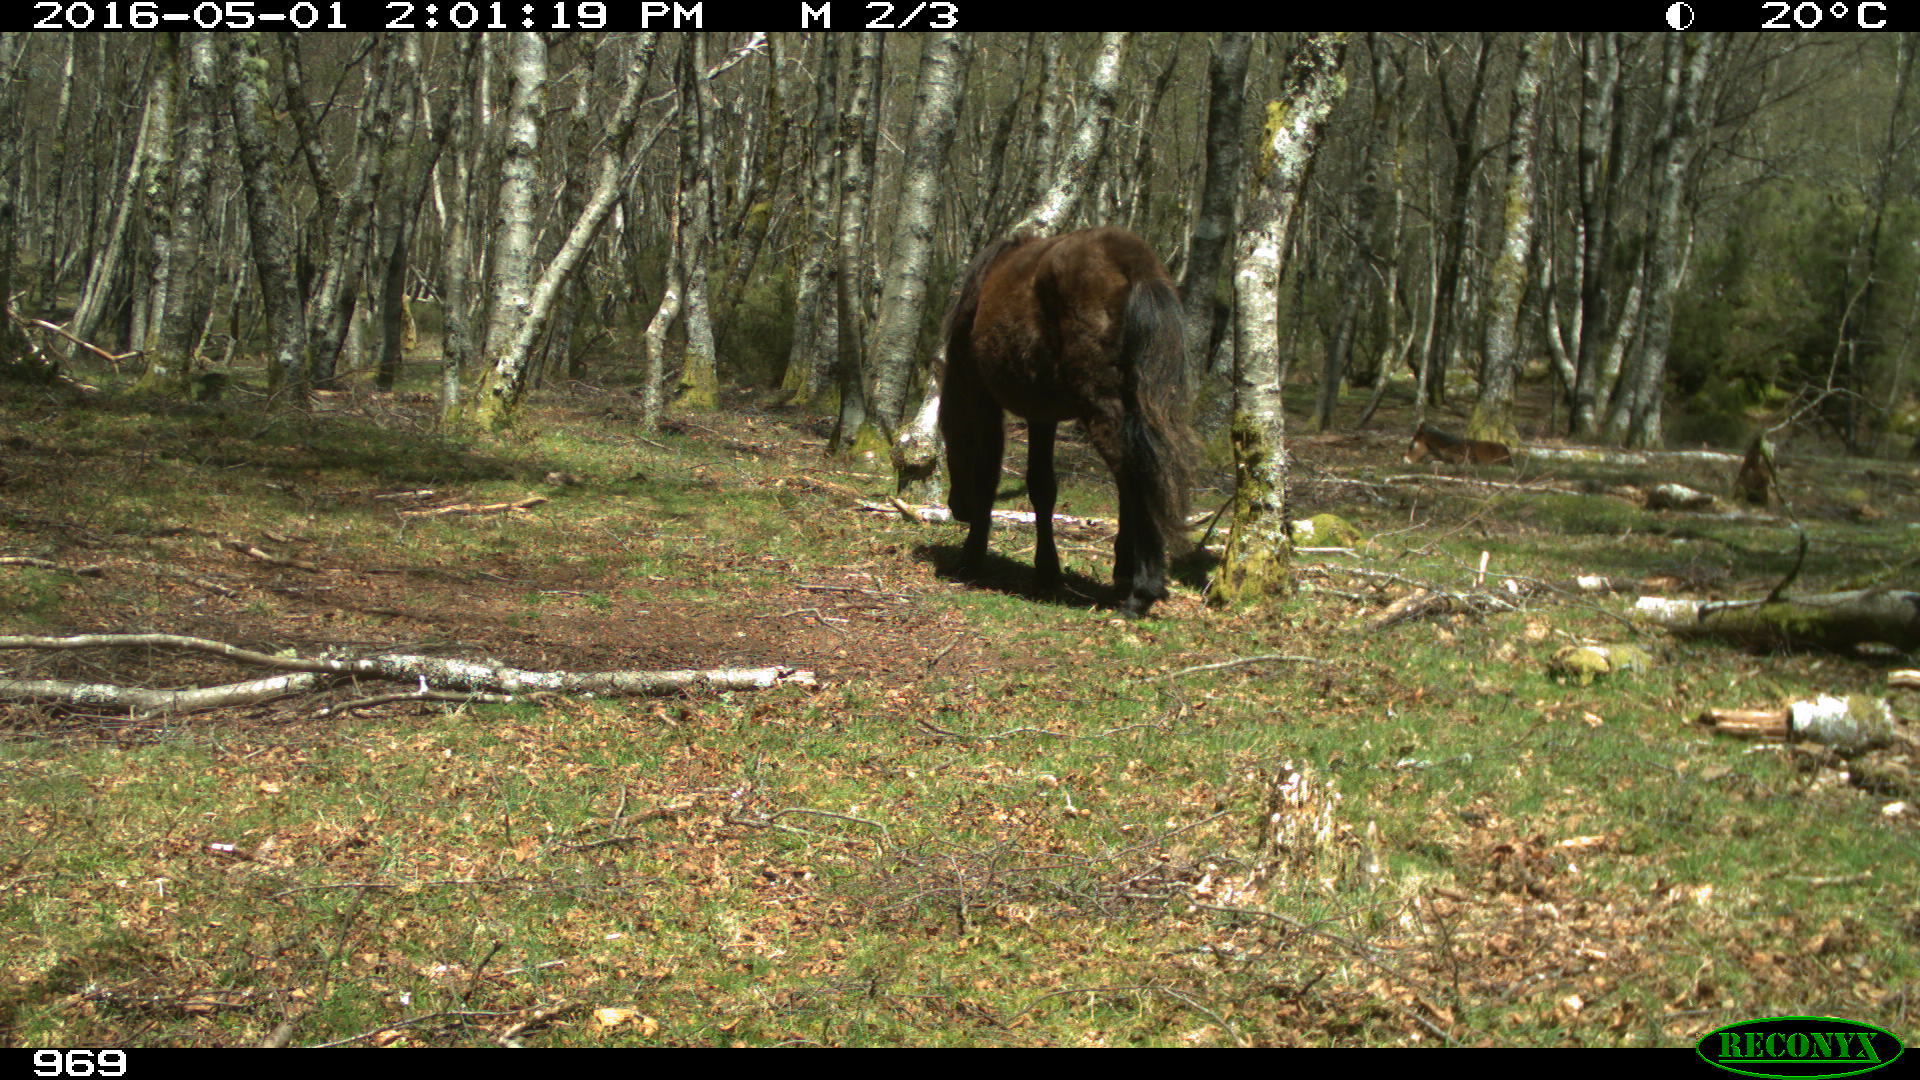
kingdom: Animalia
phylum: Chordata
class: Mammalia
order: Perissodactyla
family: Equidae
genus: Equus
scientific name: Equus caballus
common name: Horse
